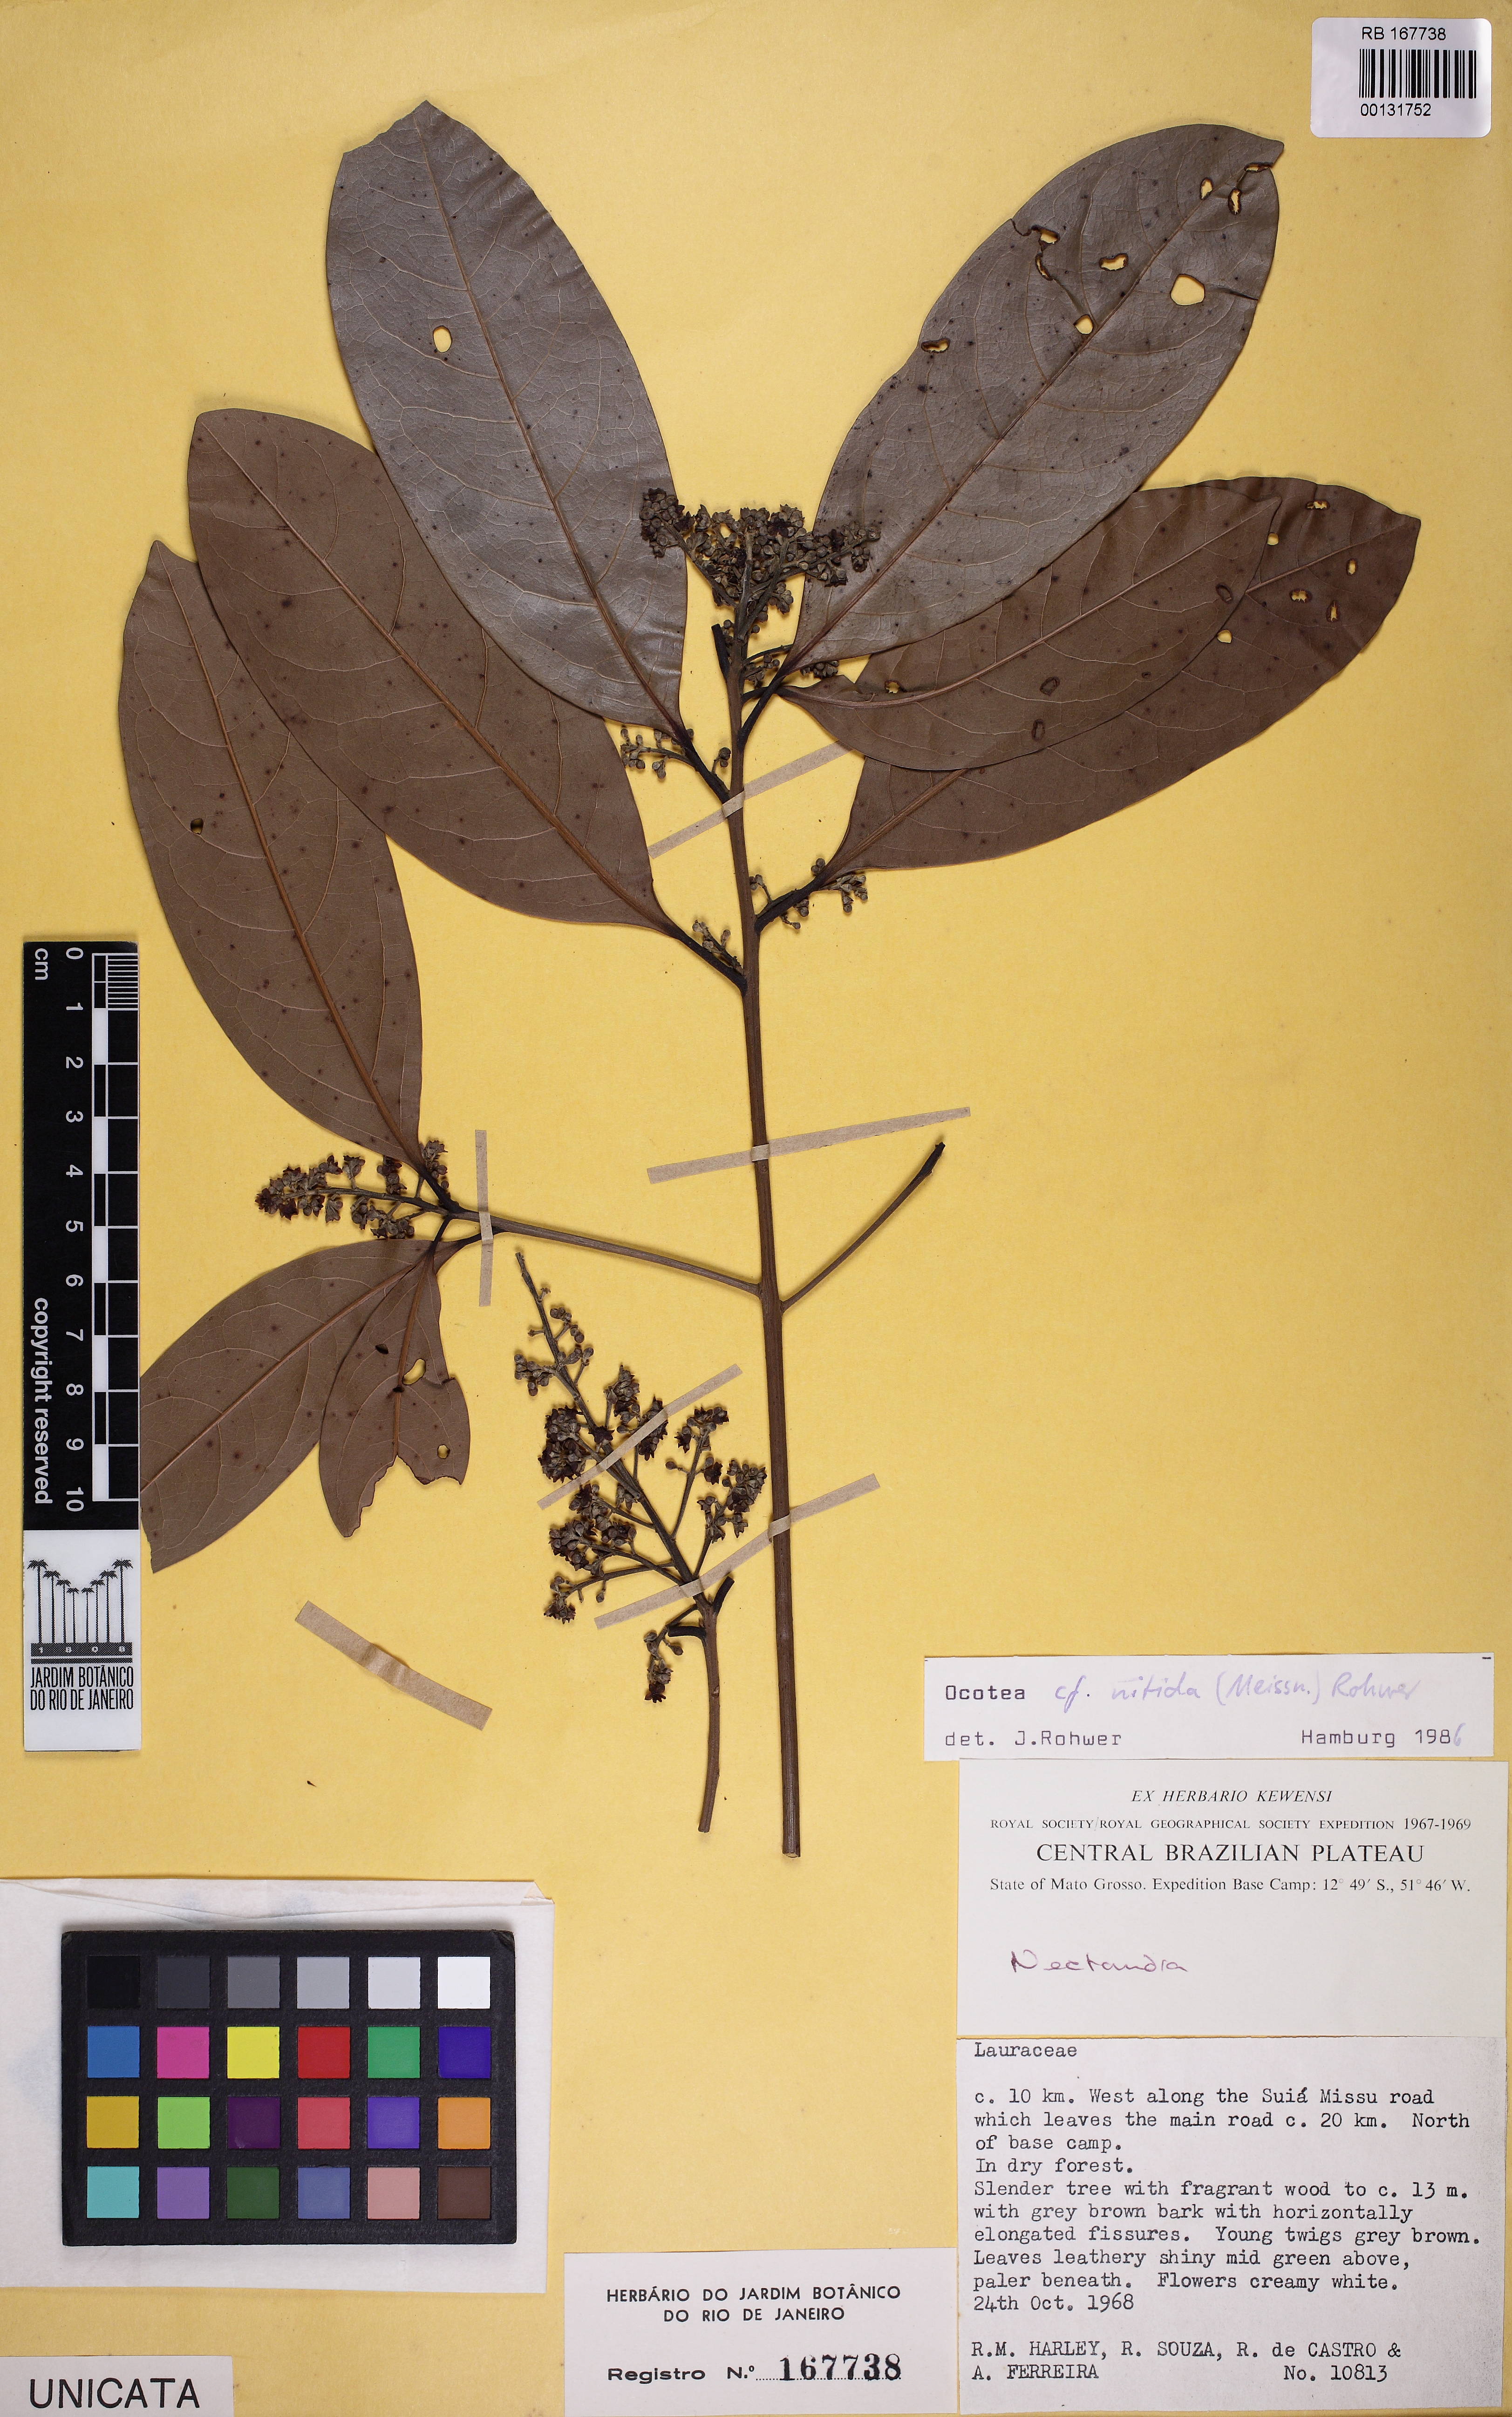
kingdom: Plantae
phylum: Tracheophyta
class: Magnoliopsida
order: Laurales
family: Lauraceae
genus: Ocotea
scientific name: Ocotea nitida
